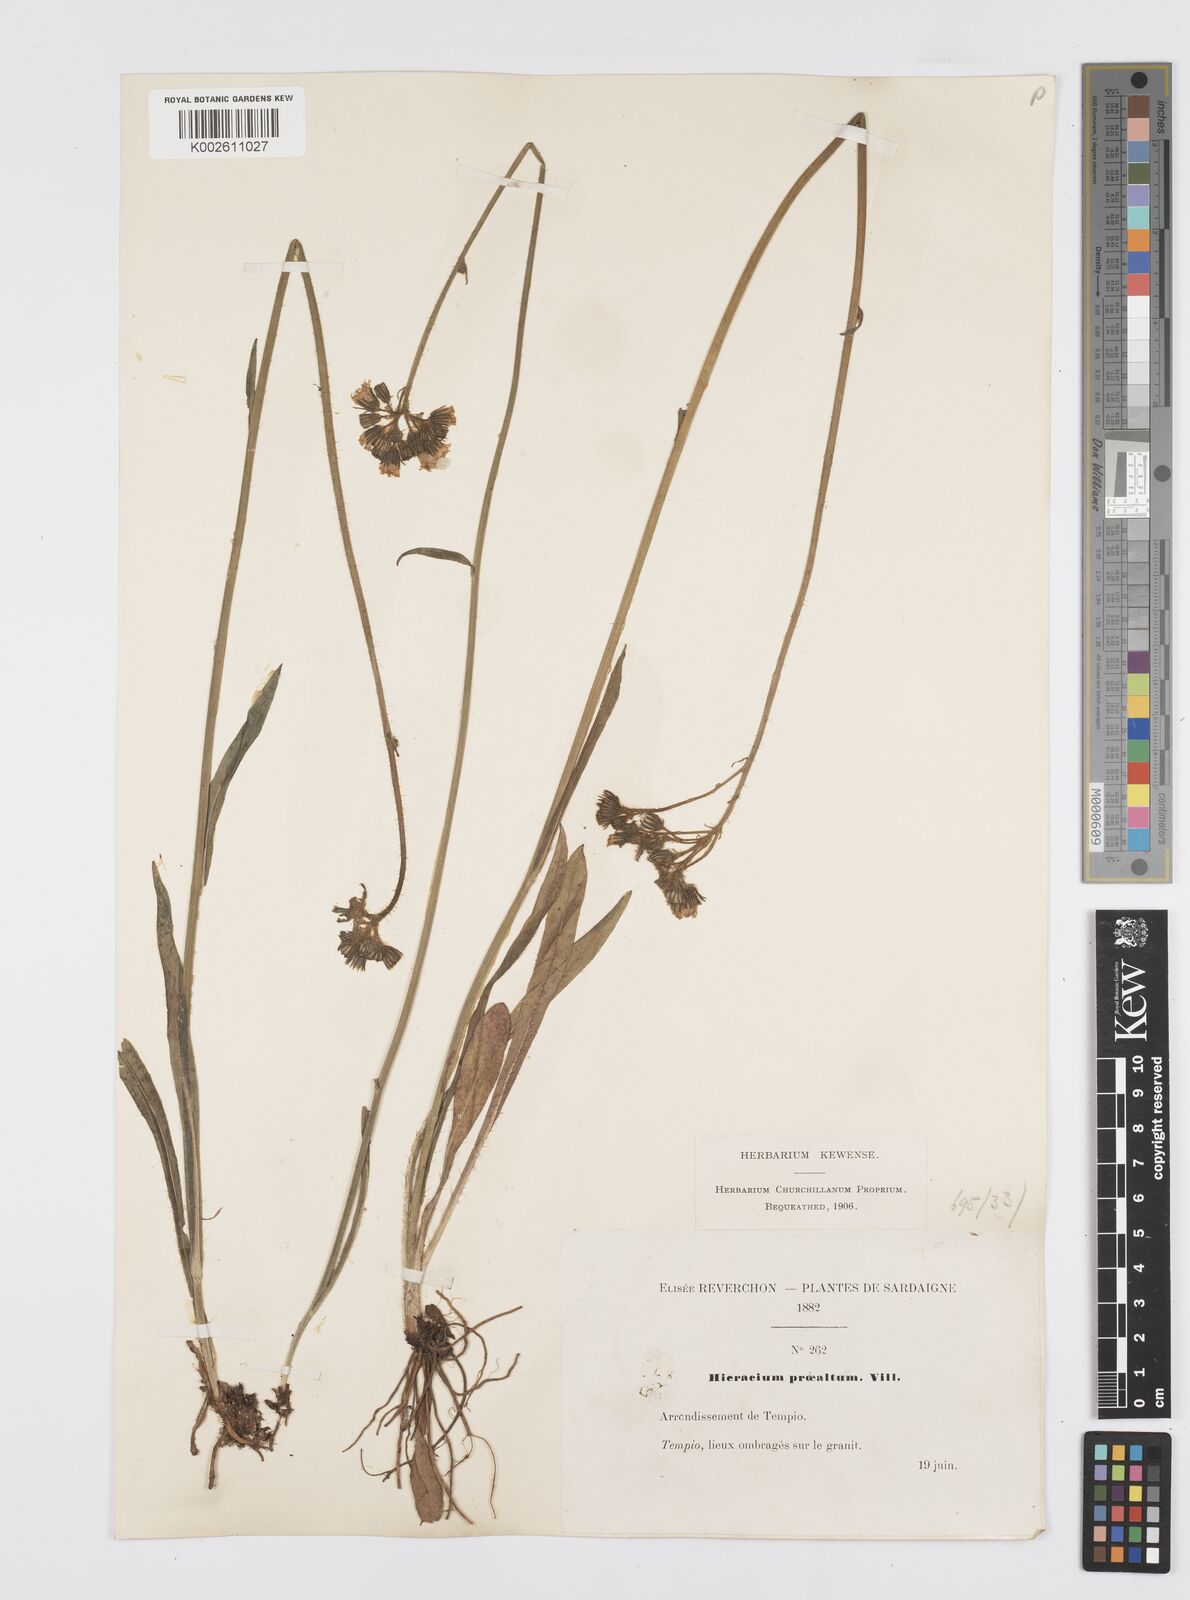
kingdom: Plantae
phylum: Tracheophyta
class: Magnoliopsida
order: Asterales
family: Asteraceae
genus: Pilosella
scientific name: Pilosella piloselloides
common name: Glaucous king-devil
